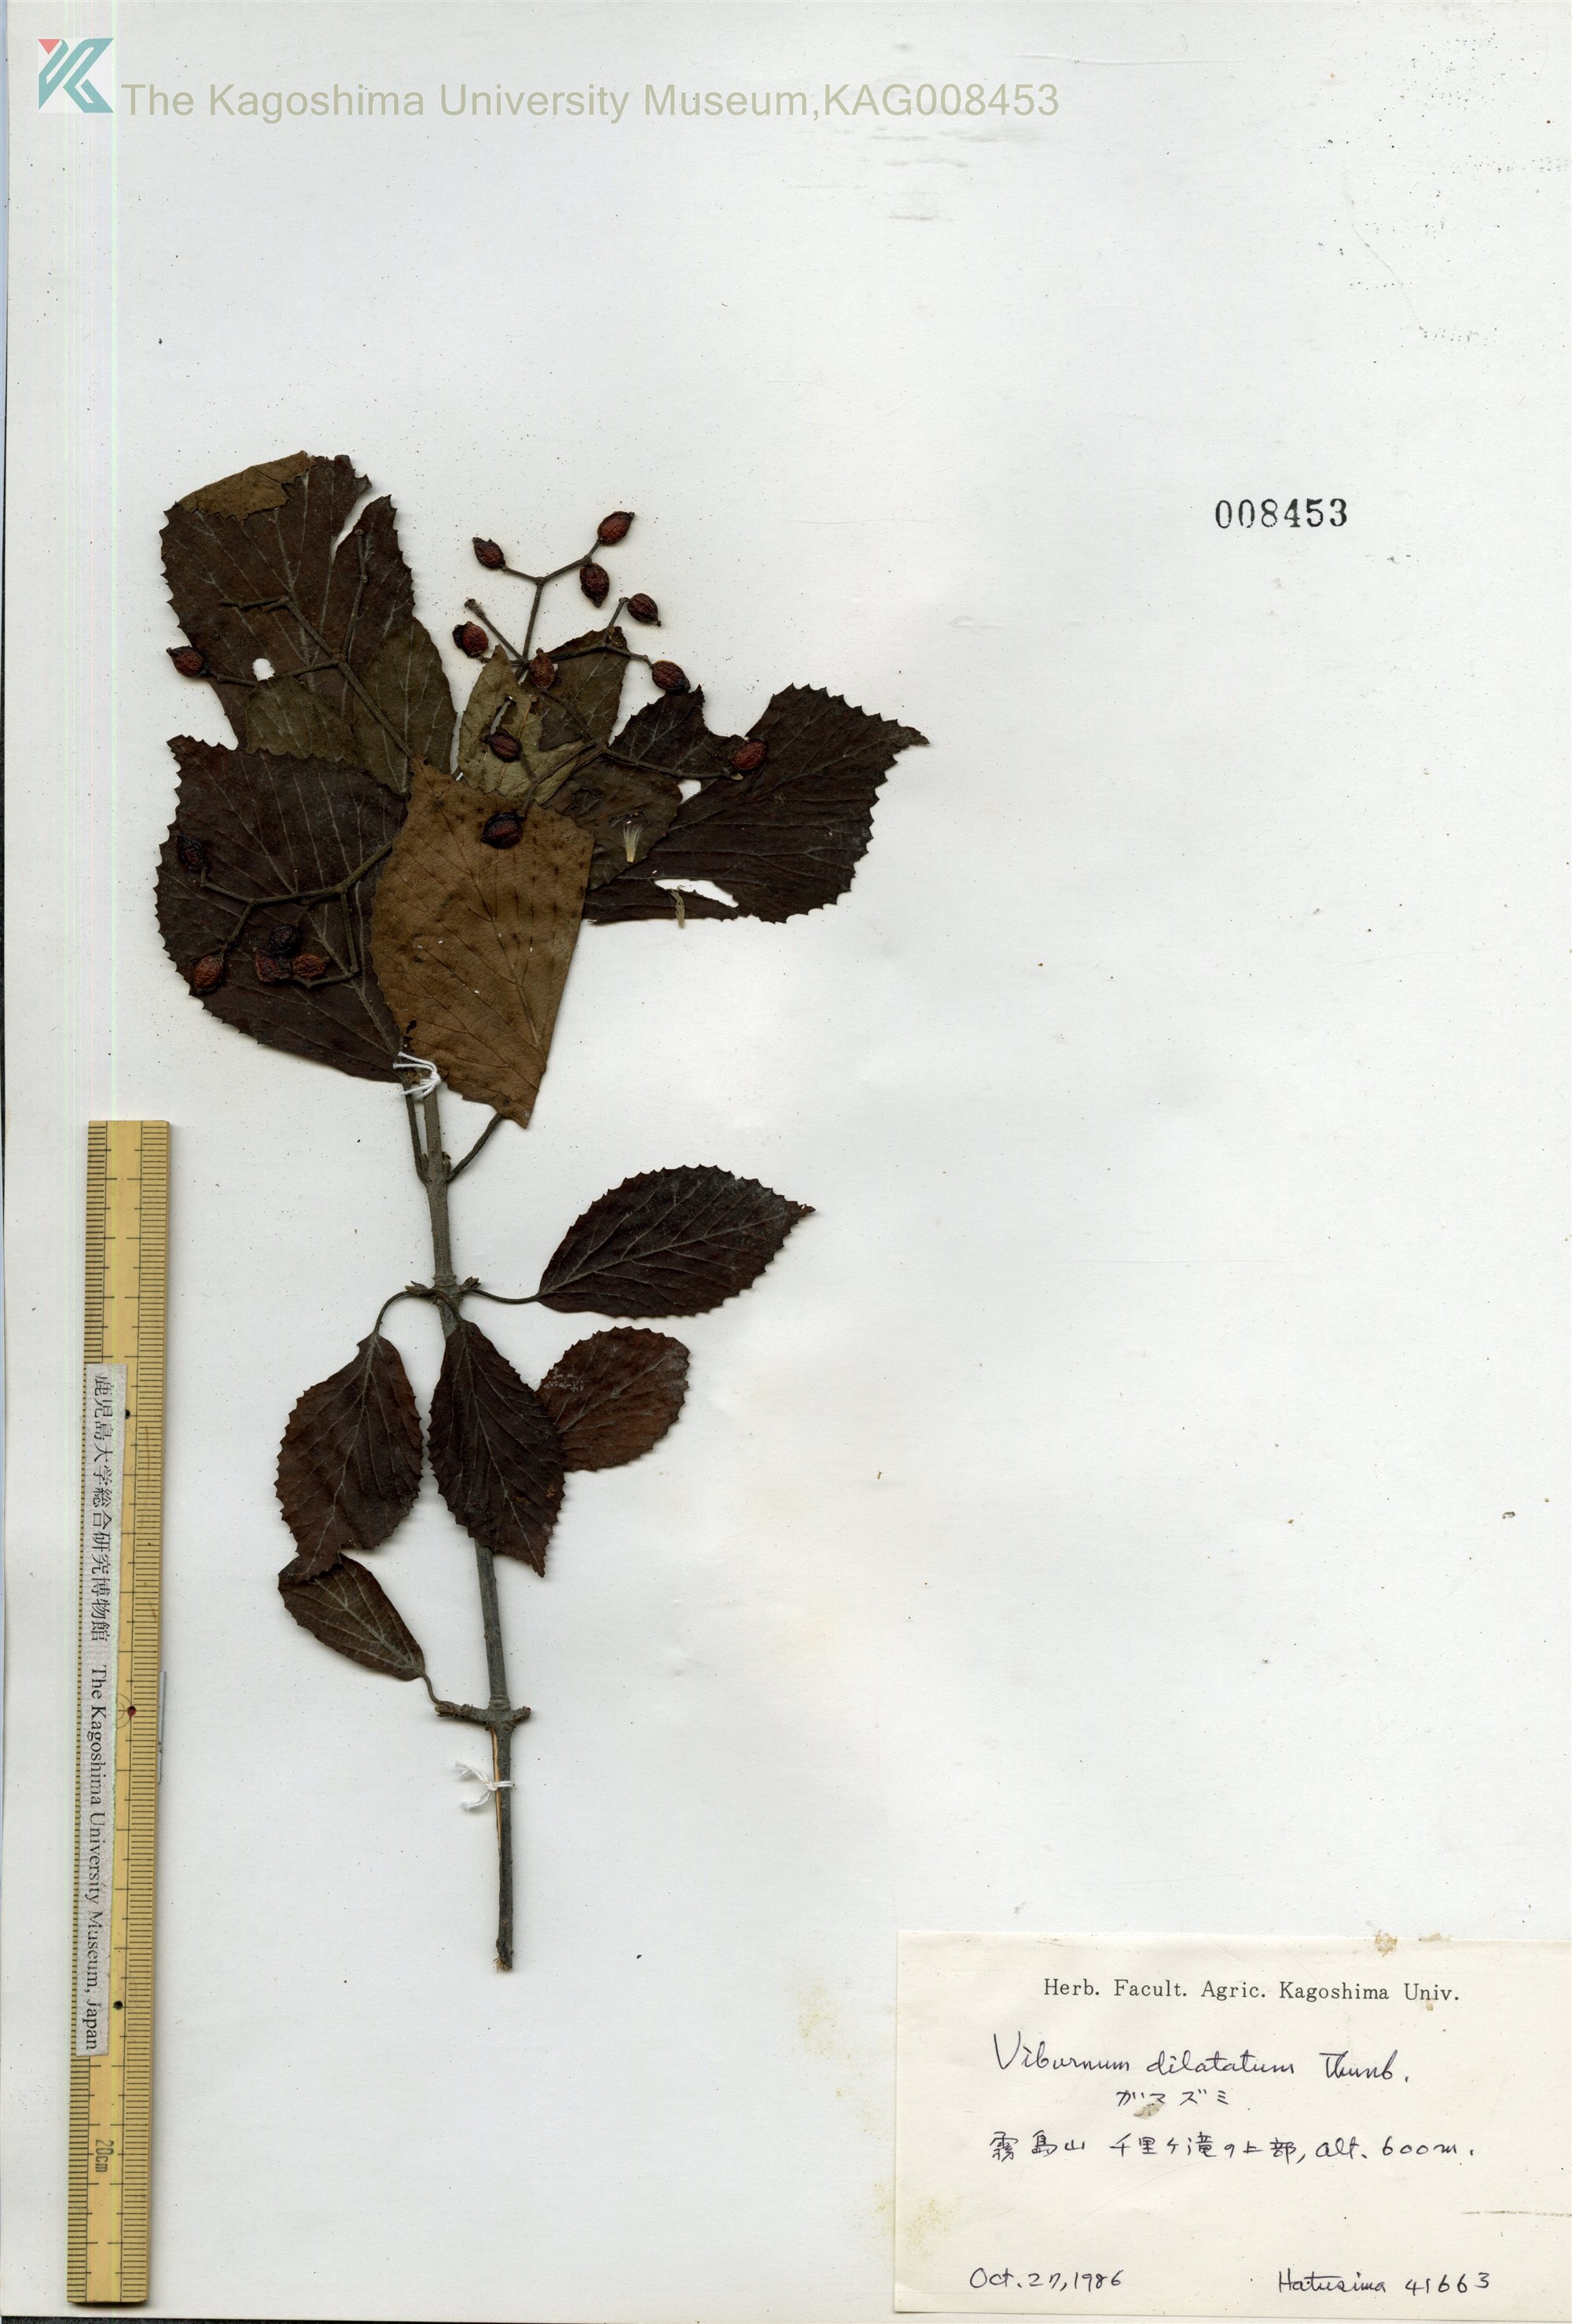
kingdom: Plantae
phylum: Tracheophyta
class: Magnoliopsida
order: Dipsacales
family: Viburnaceae
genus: Viburnum
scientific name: Viburnum dilatatum
